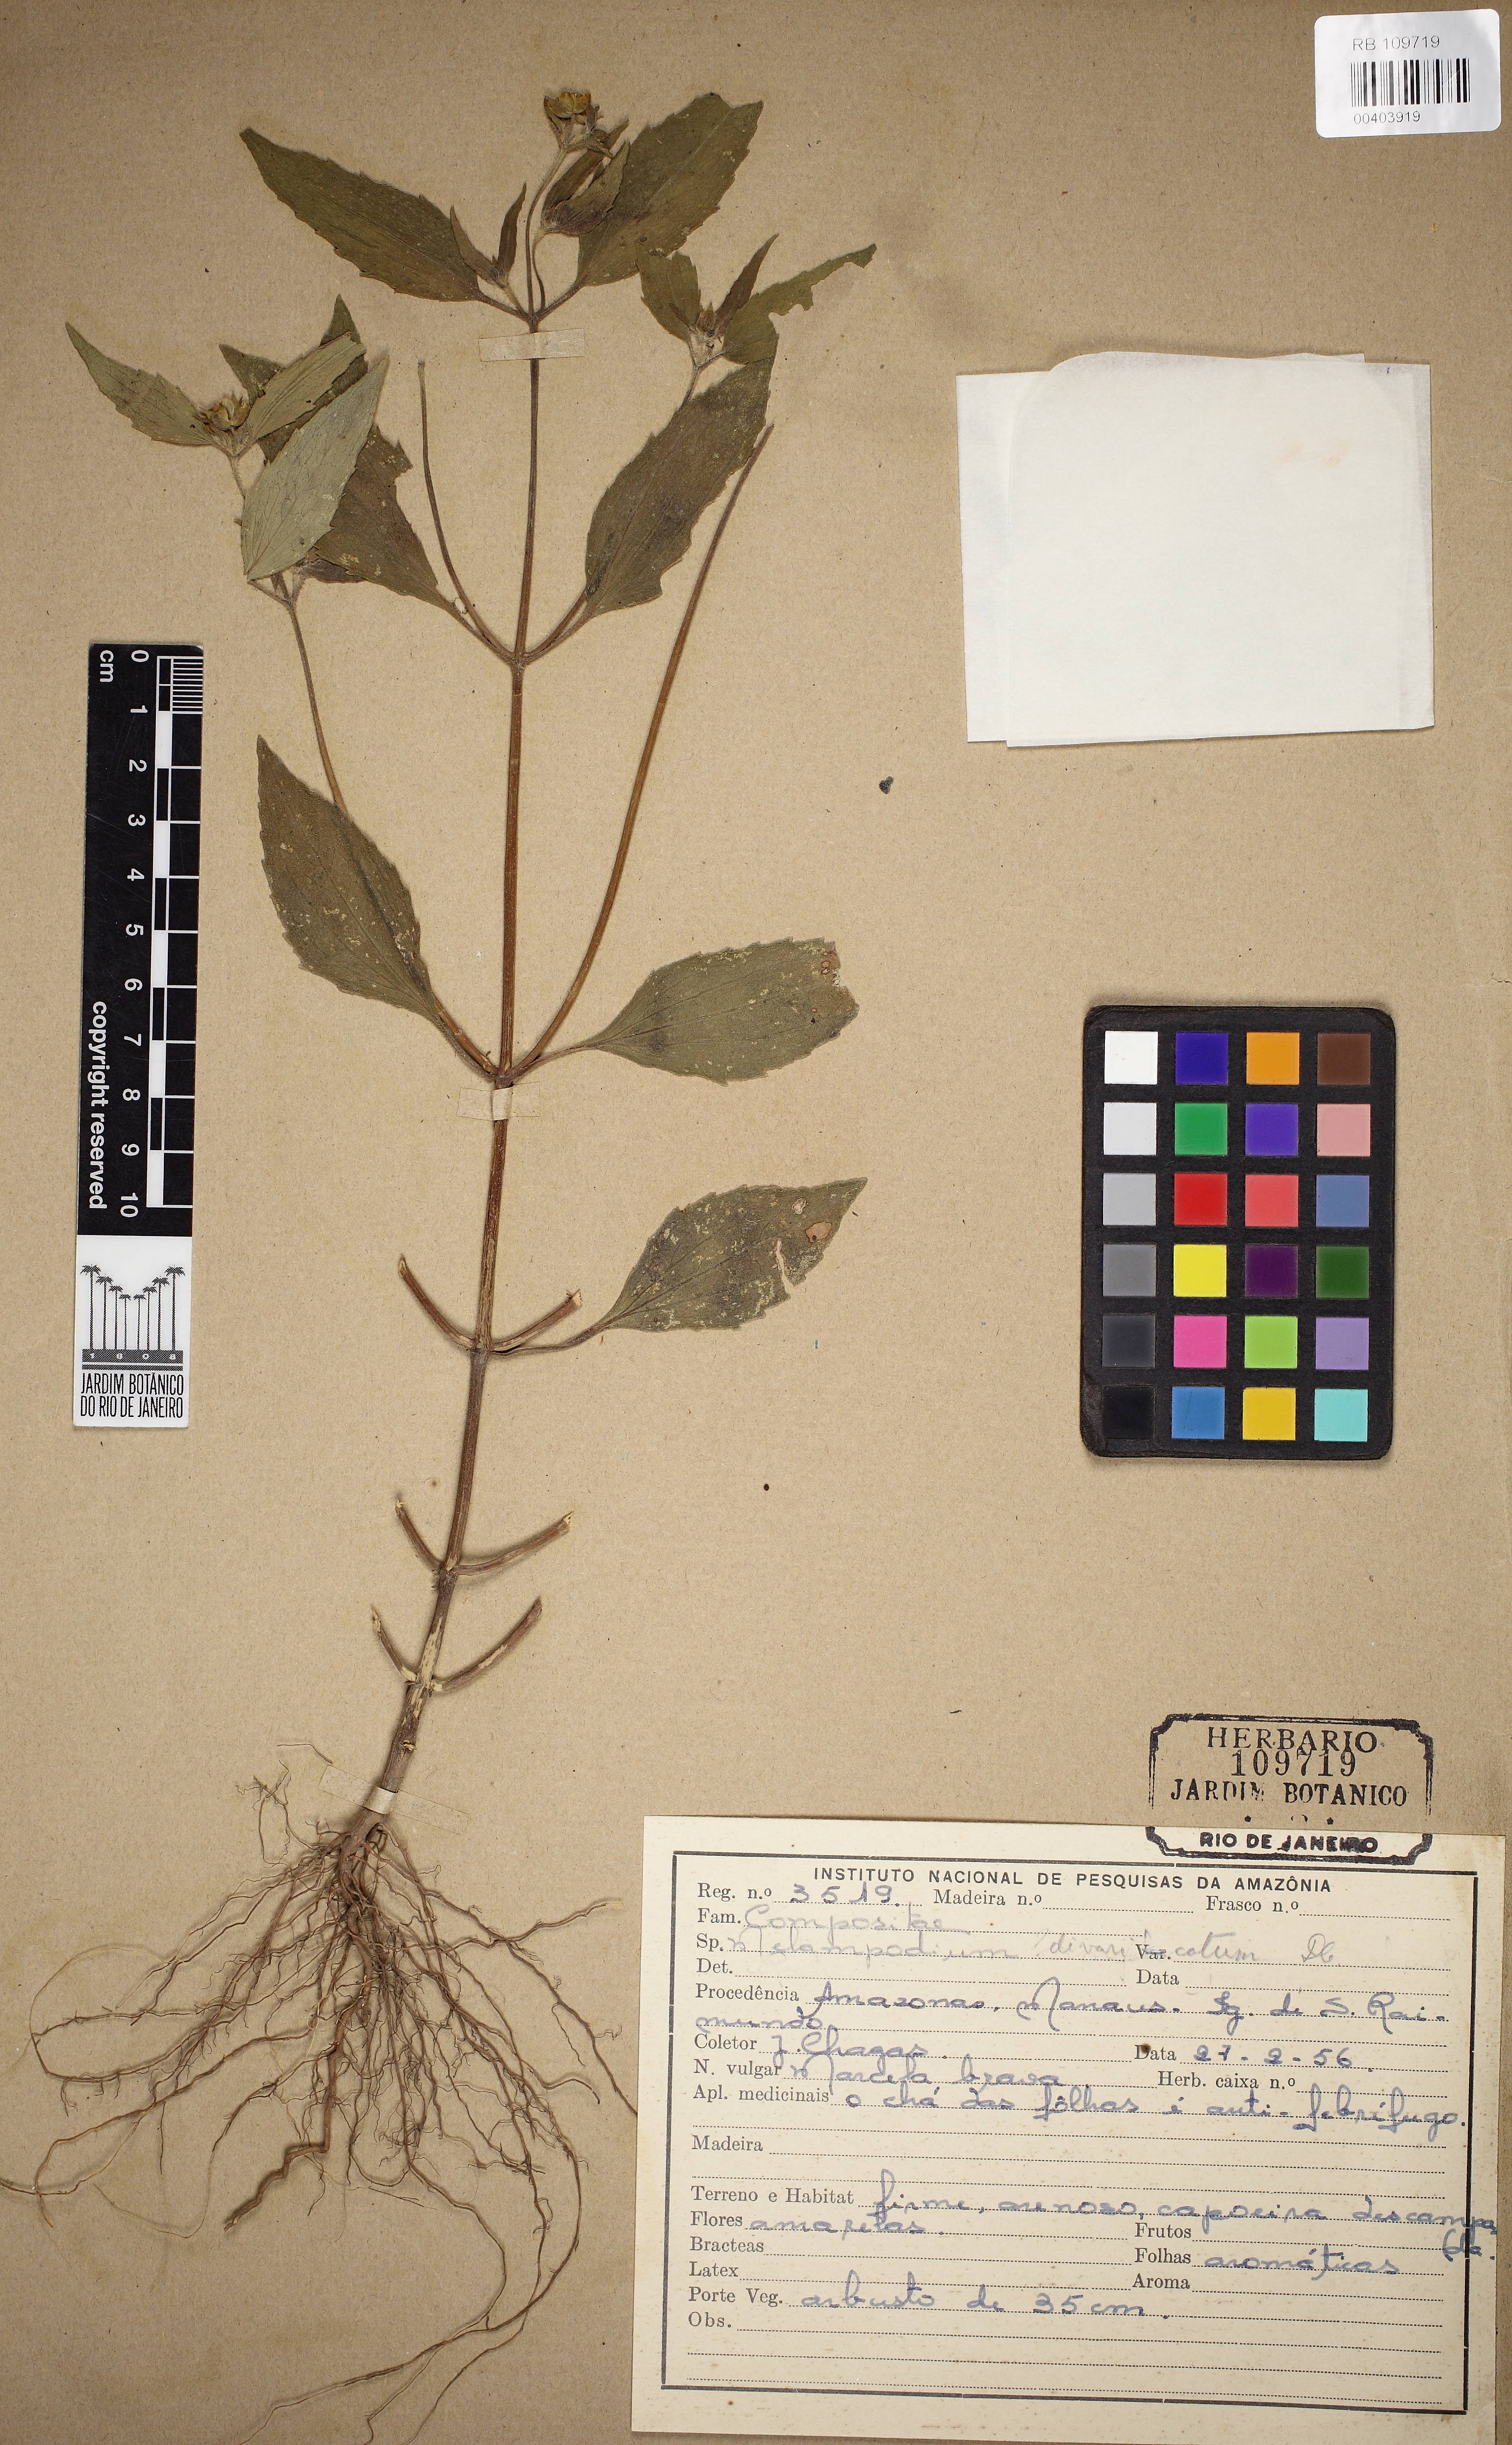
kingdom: Plantae
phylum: Tracheophyta
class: Magnoliopsida
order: Asterales
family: Asteraceae
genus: Melampodium
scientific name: Melampodium divaricatum
